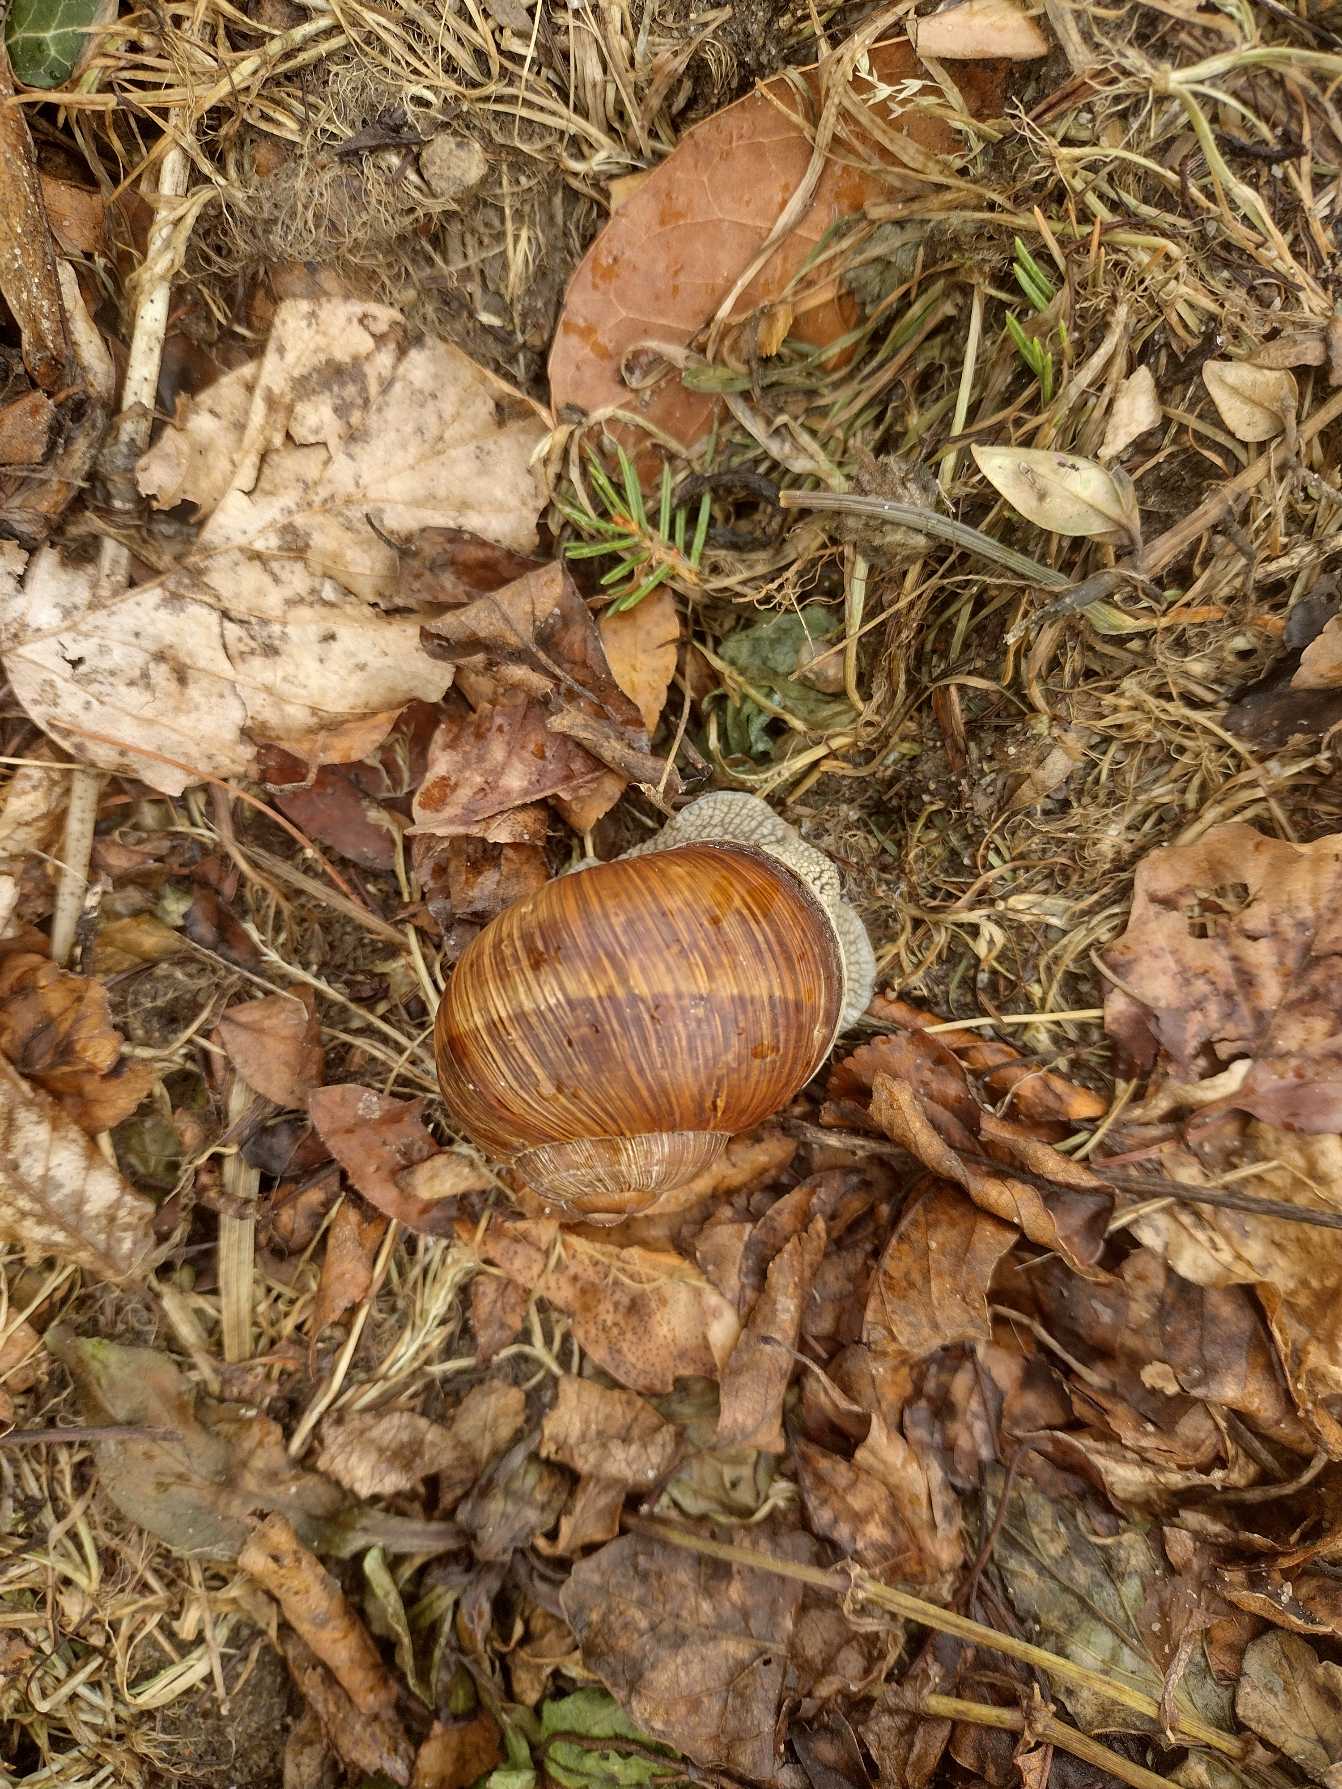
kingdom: Animalia
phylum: Mollusca
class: Gastropoda
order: Stylommatophora
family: Helicidae
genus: Helix
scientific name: Helix pomatia
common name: Vinbjergsnegl
